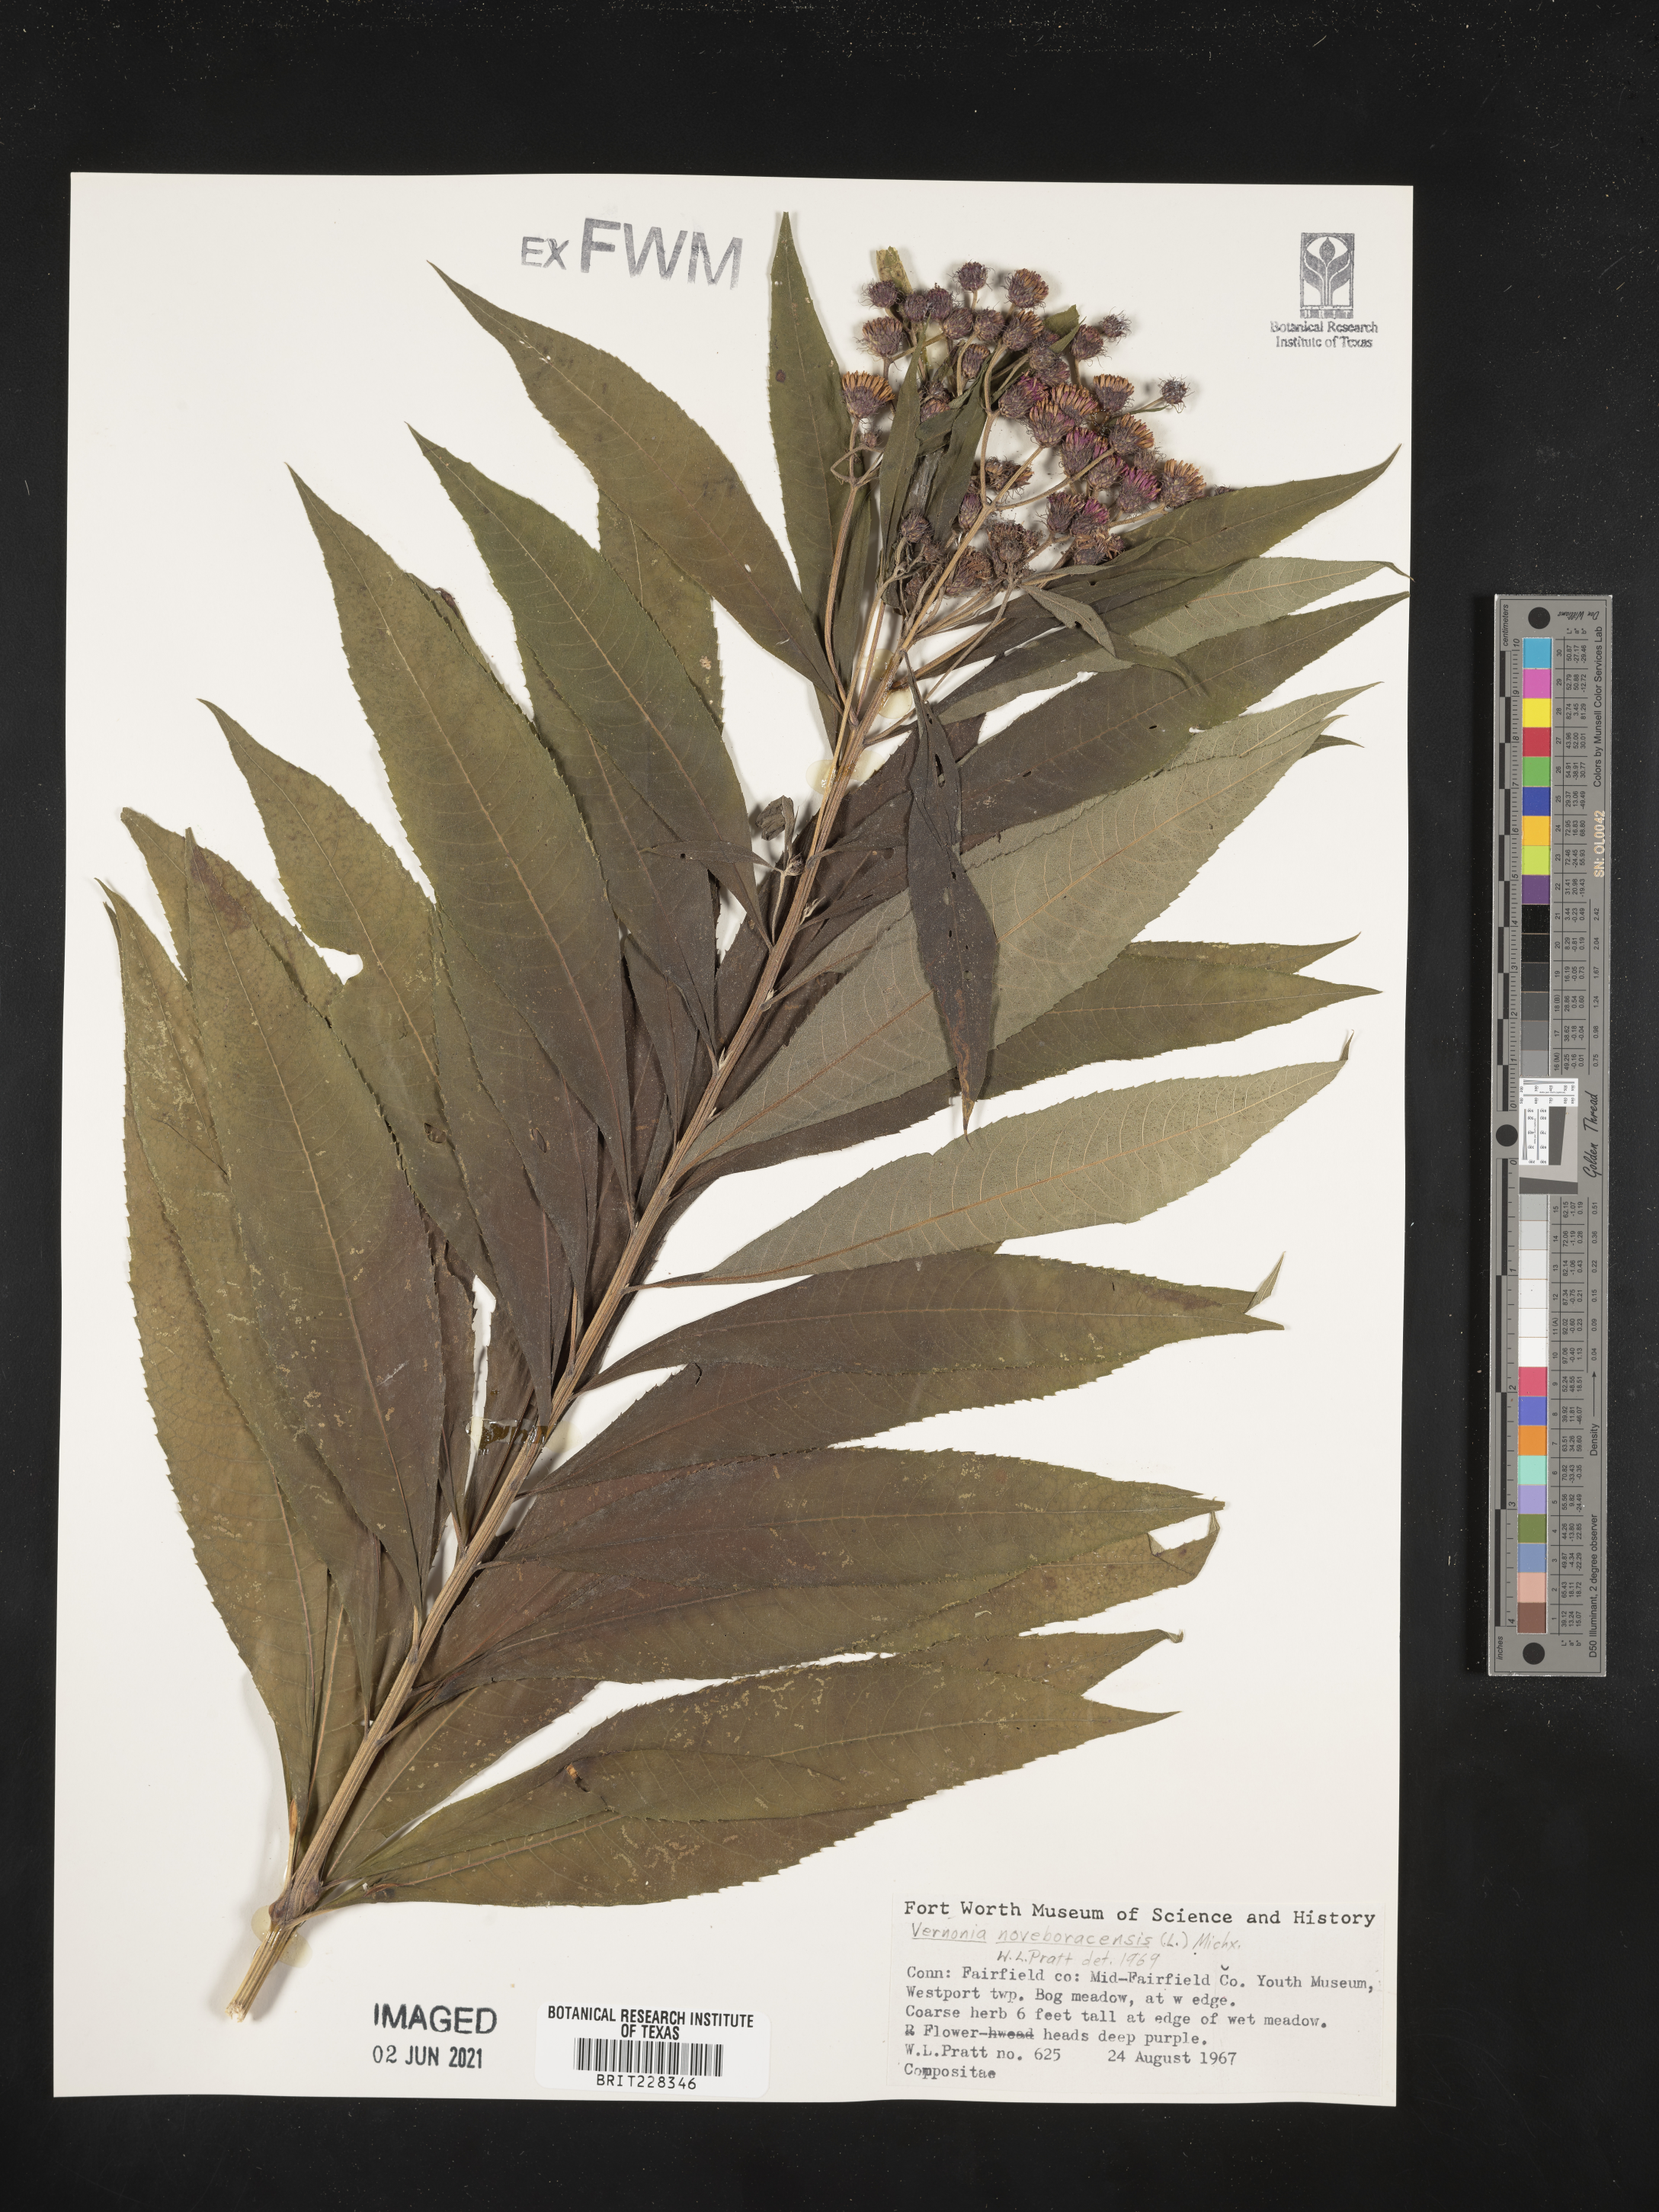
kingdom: Plantae
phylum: Tracheophyta
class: Magnoliopsida
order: Asterales
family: Asteraceae
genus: Vernonia
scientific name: Vernonia noveboracensis
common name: New york ironweed
